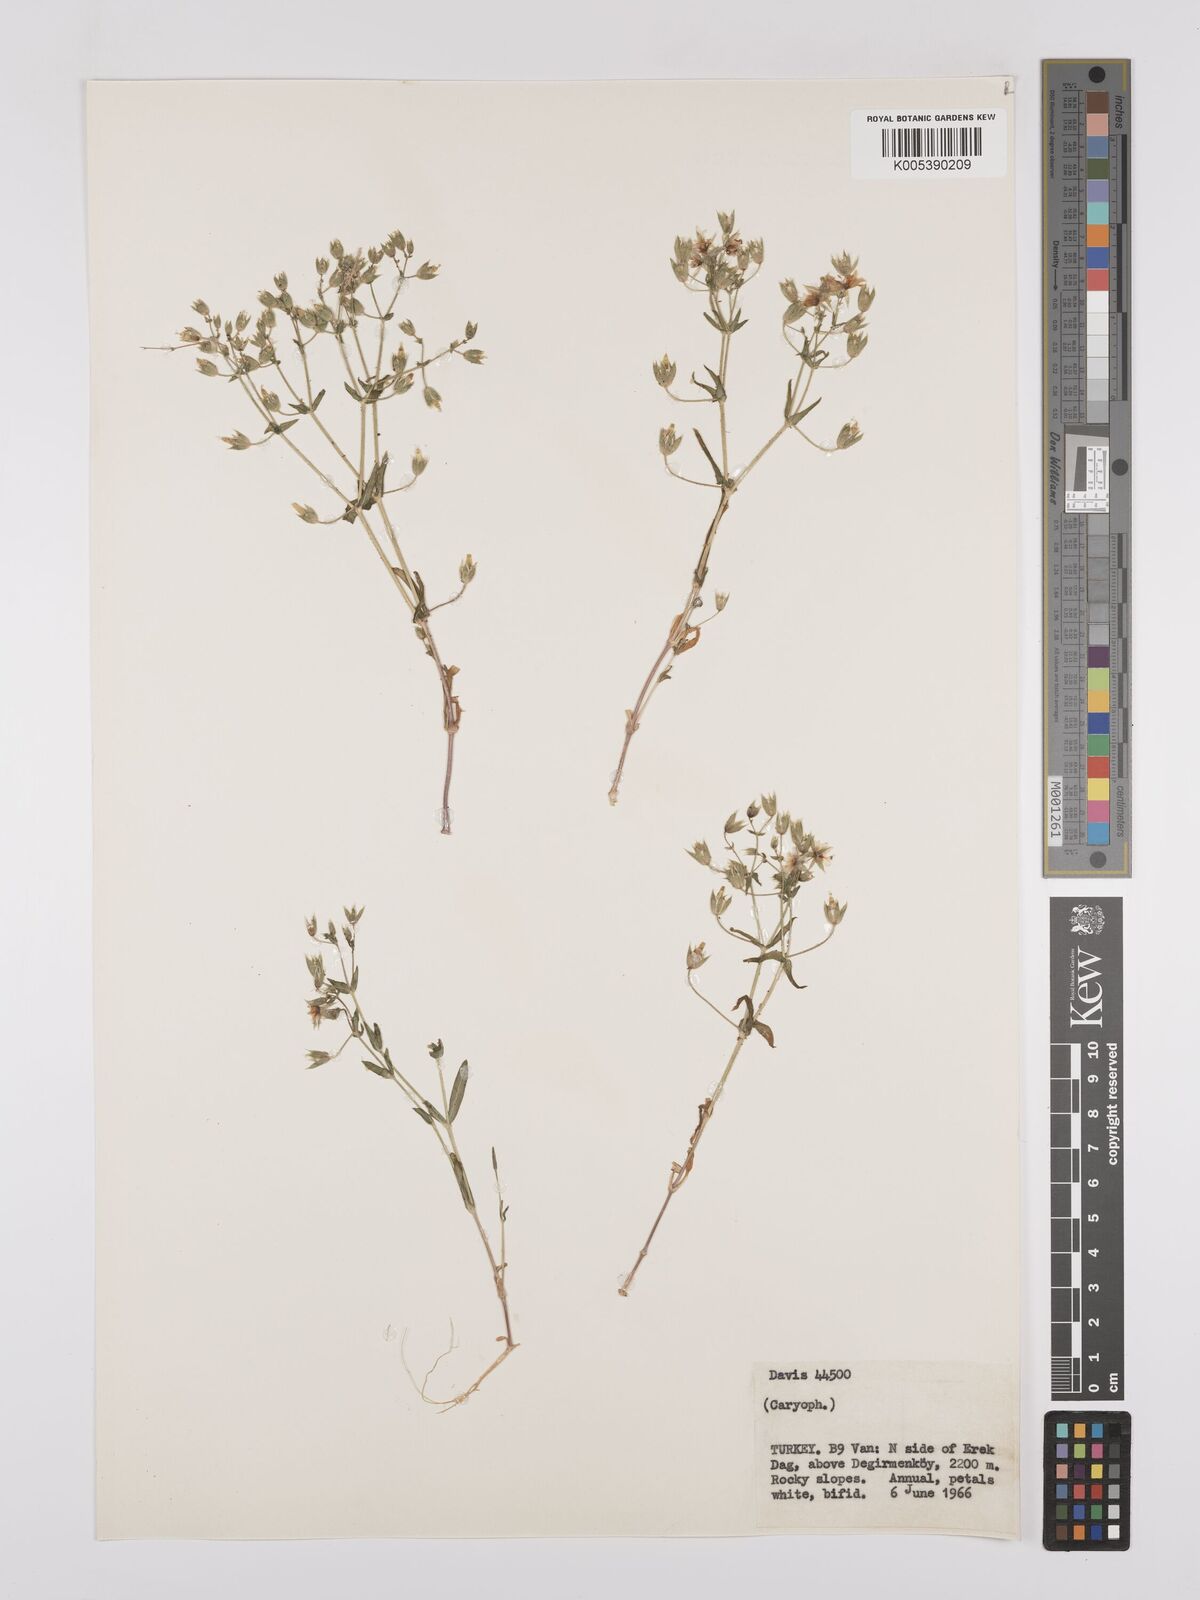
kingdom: Plantae
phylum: Tracheophyta
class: Magnoliopsida
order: Caryophyllales
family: Caryophyllaceae
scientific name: Caryophyllaceae
